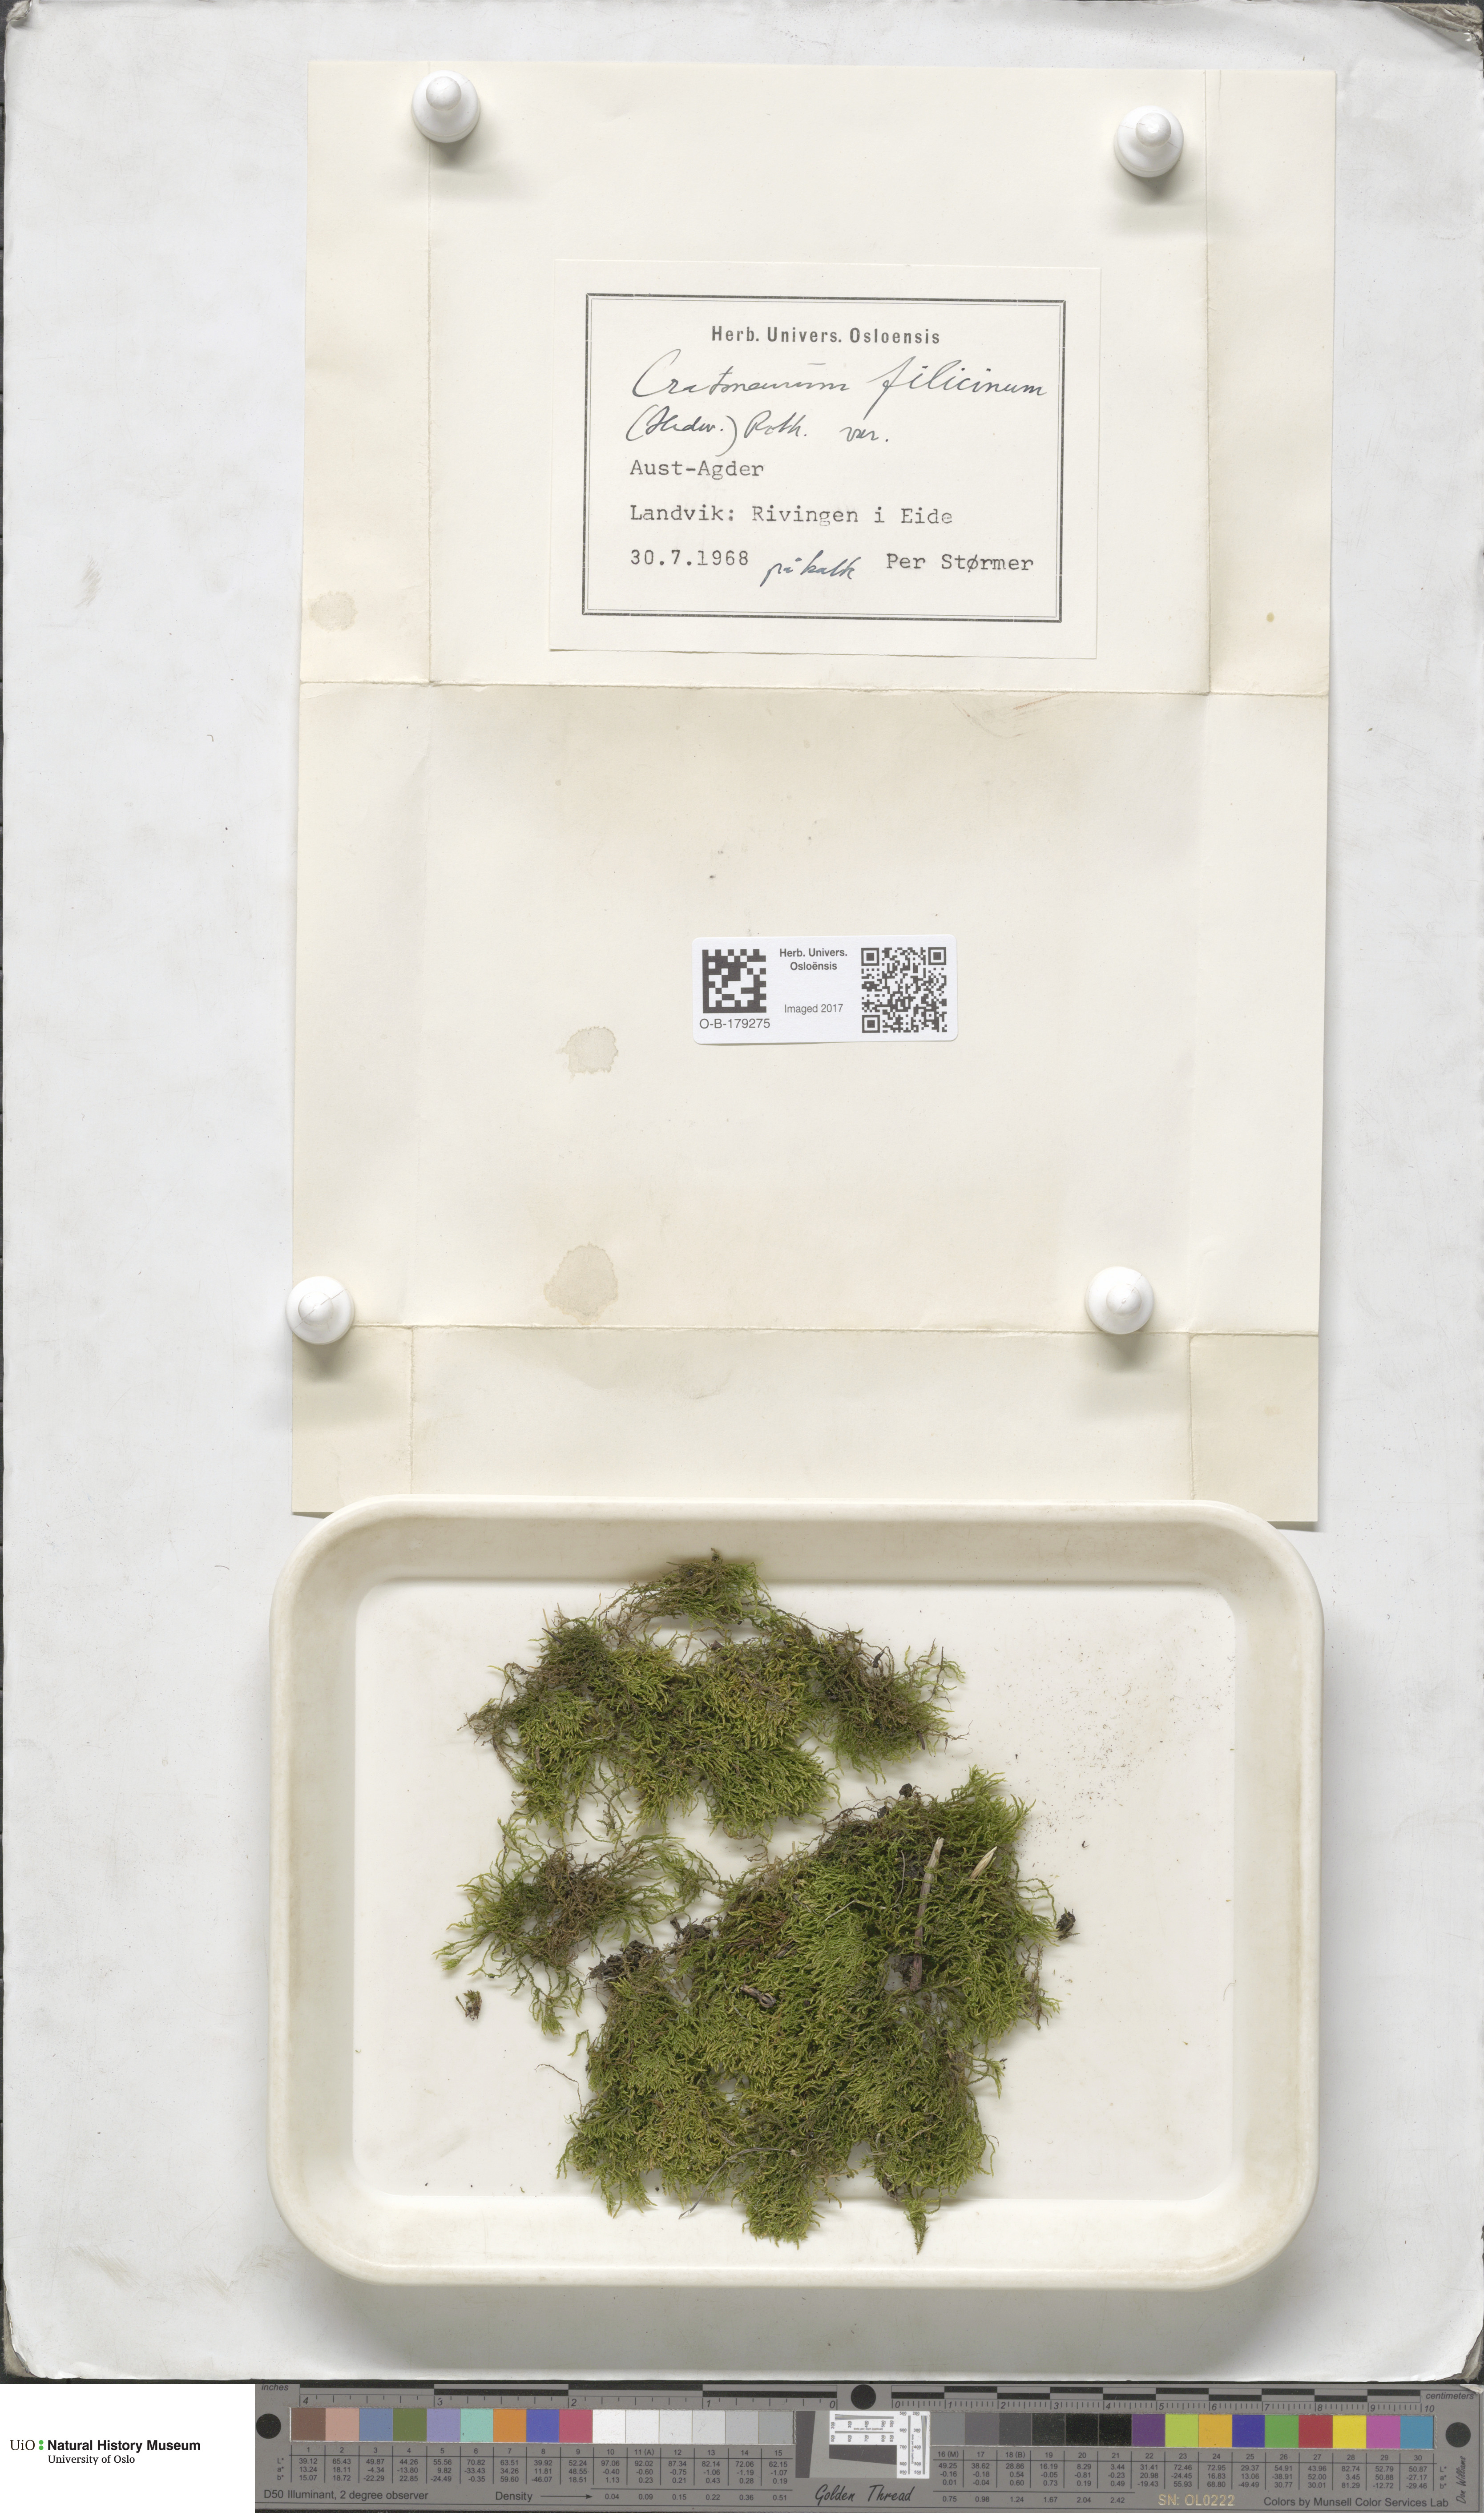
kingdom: Plantae
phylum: Bryophyta
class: Bryopsida
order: Hypnales
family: Amblystegiaceae
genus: Cratoneuron
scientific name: Cratoneuron filicinum
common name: Fern-leaved hook moss
